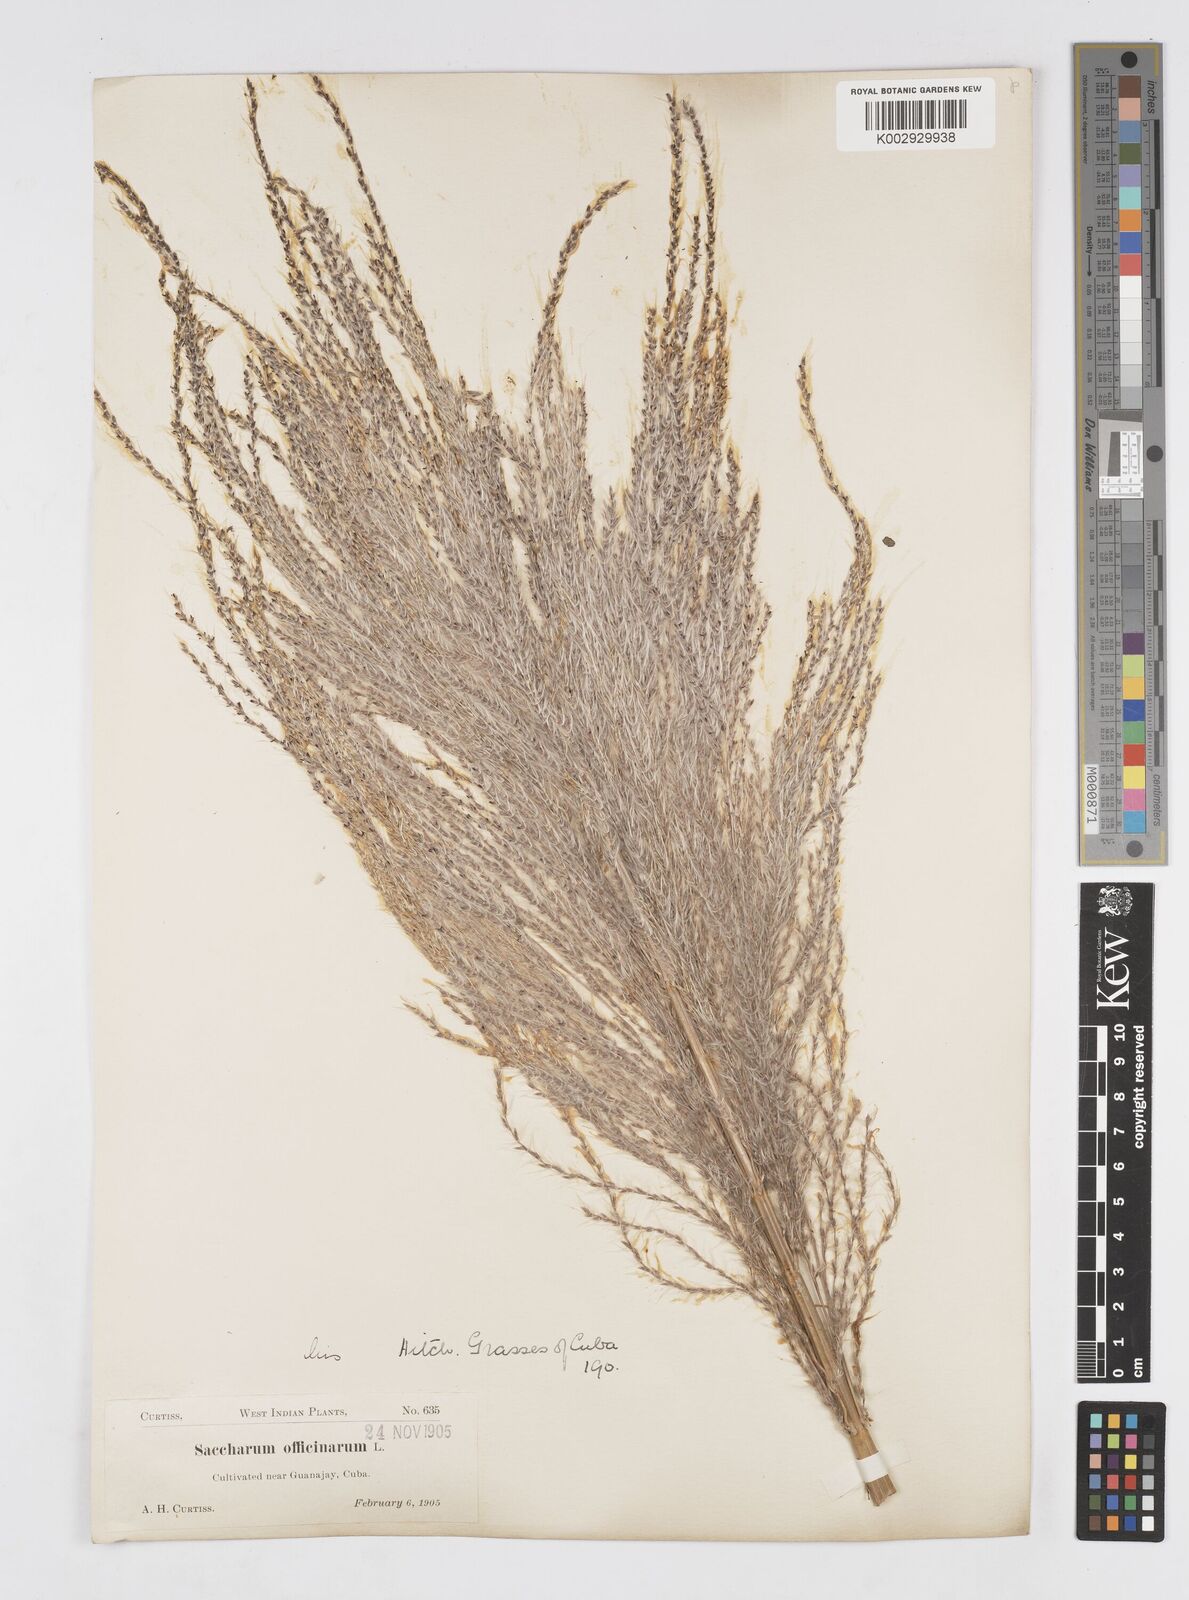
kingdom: Plantae
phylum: Tracheophyta
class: Liliopsida
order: Poales
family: Poaceae
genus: Saccharum
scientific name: Saccharum officinarum
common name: Sugarcane
